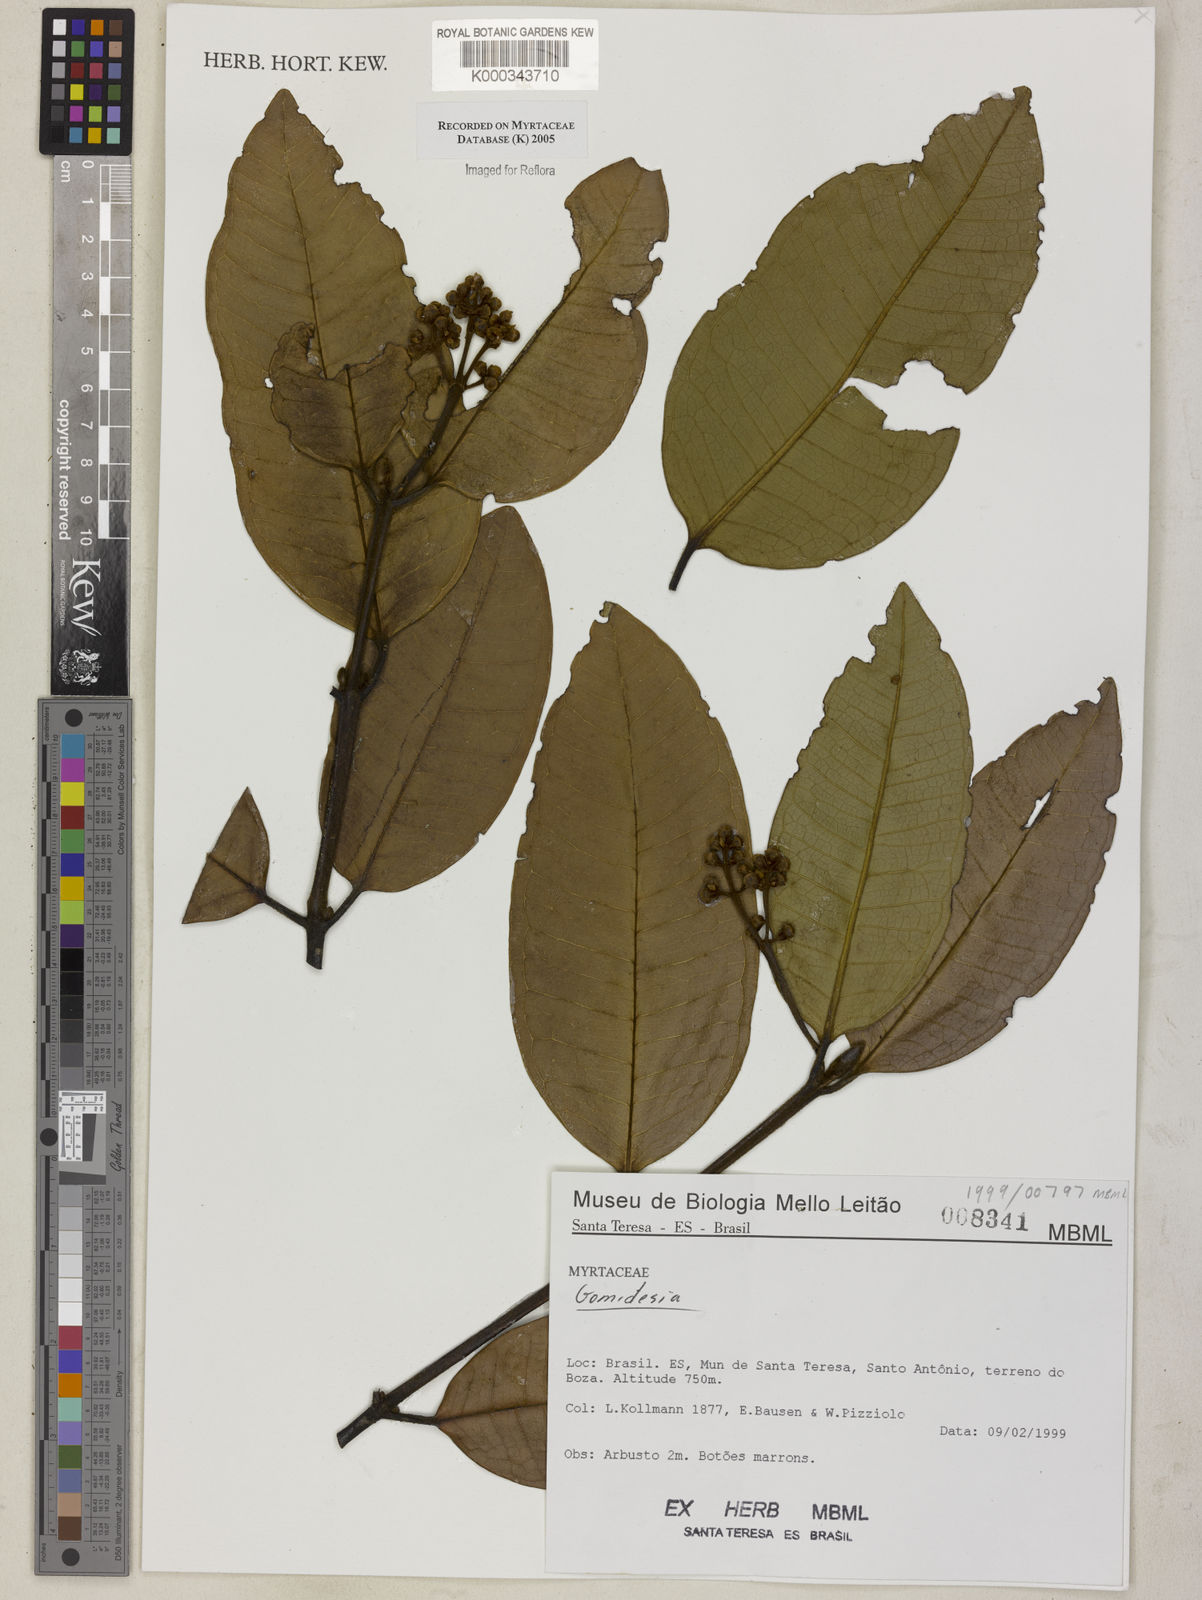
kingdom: Plantae
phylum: Tracheophyta
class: Magnoliopsida
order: Myrtales
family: Myrtaceae
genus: Myrcia
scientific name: Myrcia
